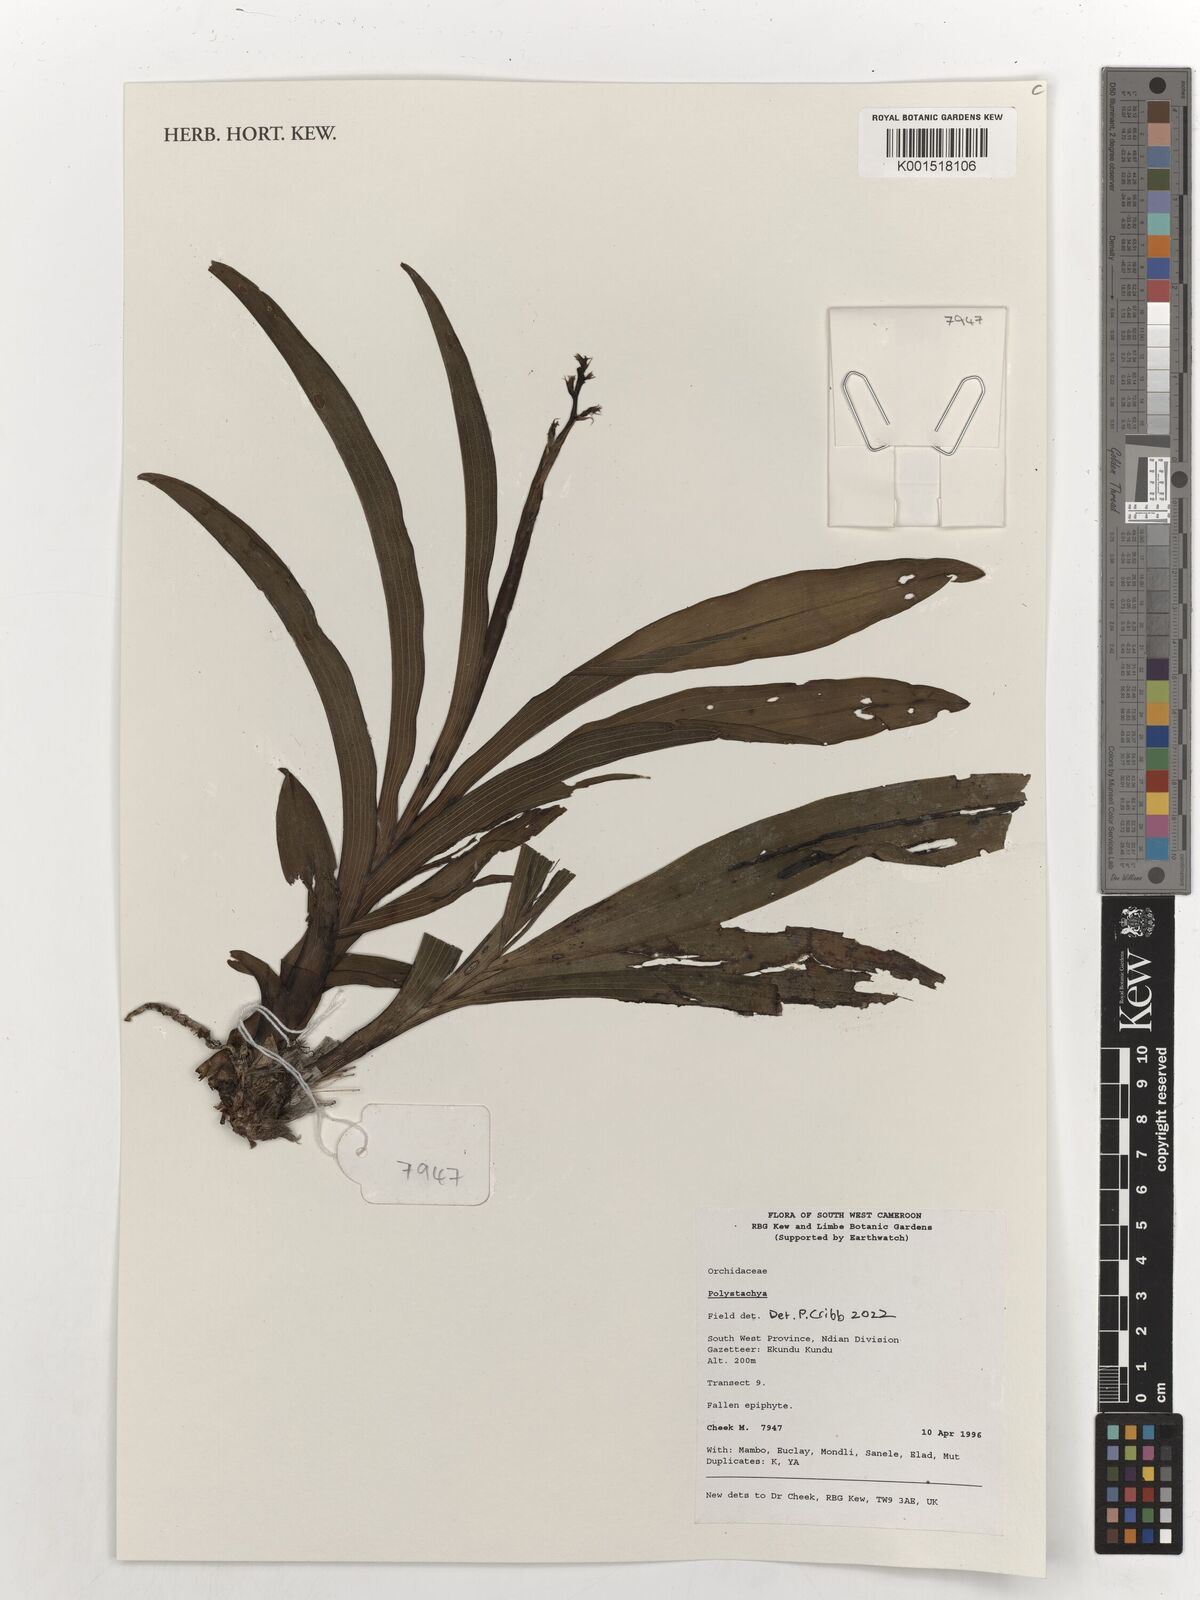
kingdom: Plantae
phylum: Tracheophyta
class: Liliopsida
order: Asparagales
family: Orchidaceae
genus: Polystachya
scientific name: Polystachya
